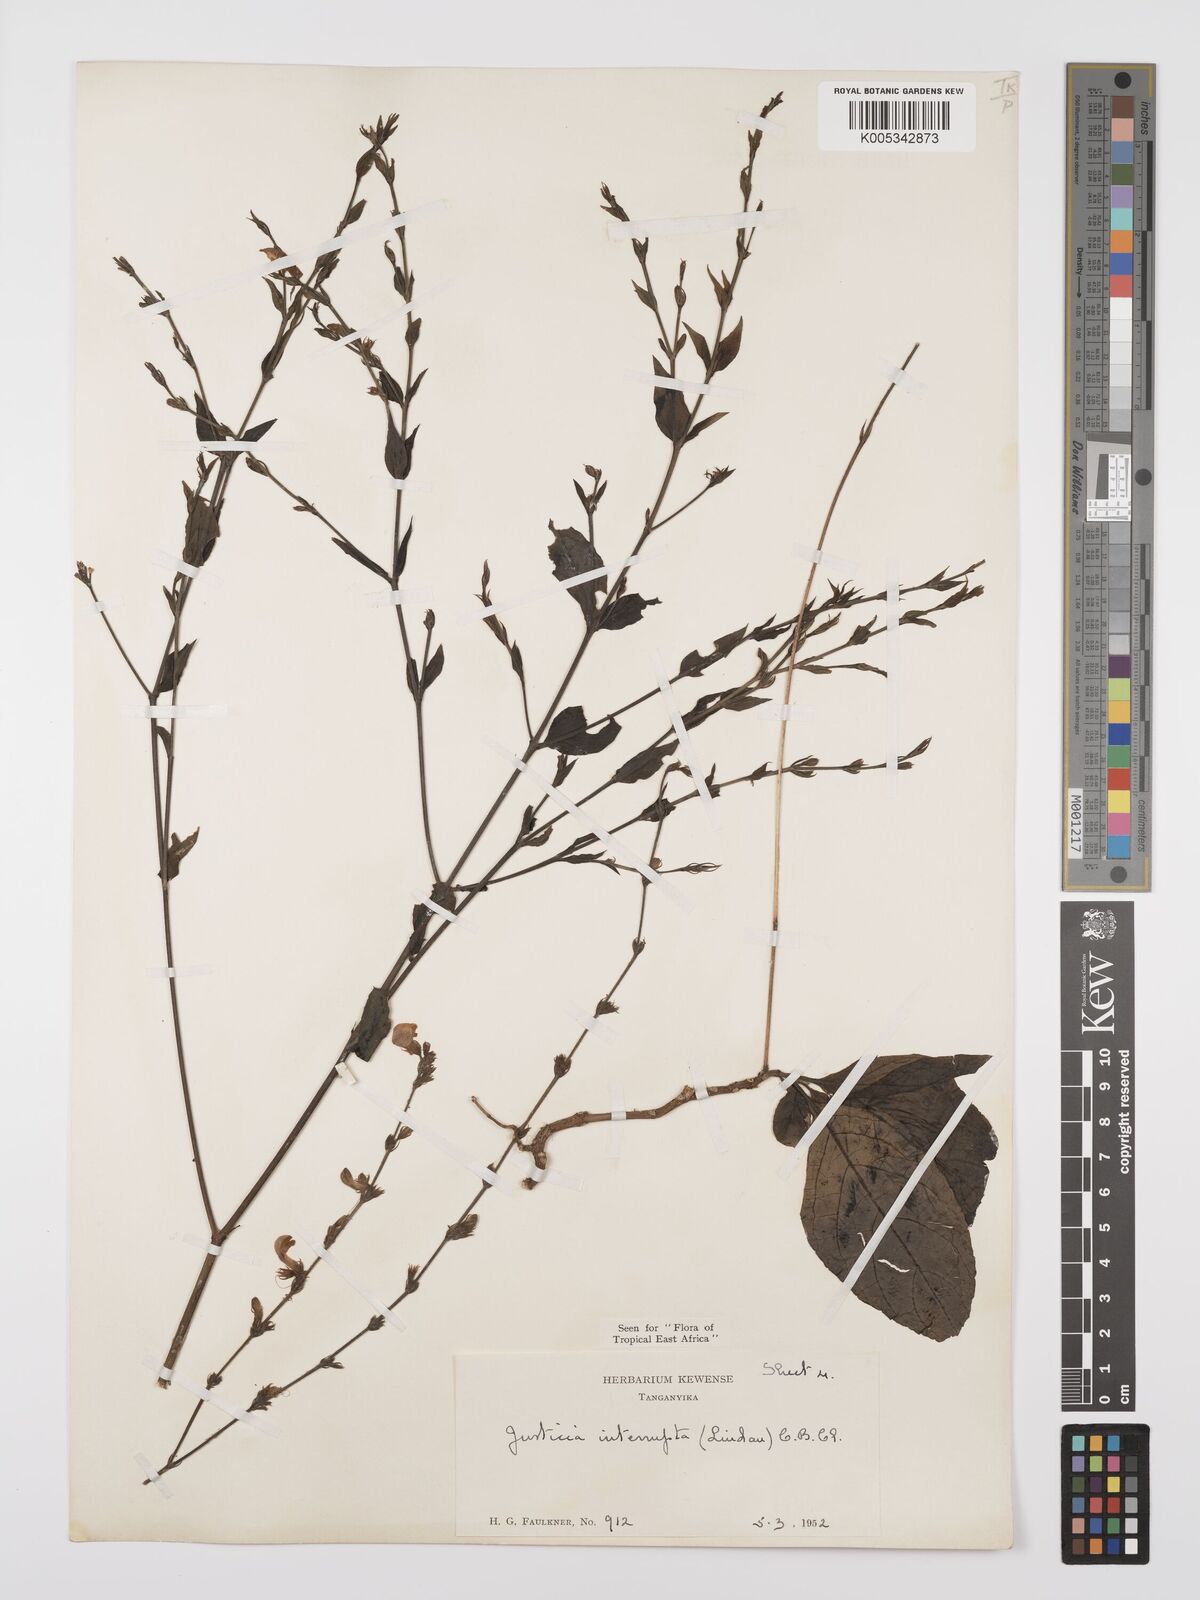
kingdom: Plantae
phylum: Tracheophyta
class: Magnoliopsida
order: Lamiales
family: Acanthaceae
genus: Justicia
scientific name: Justicia plectranthoides
